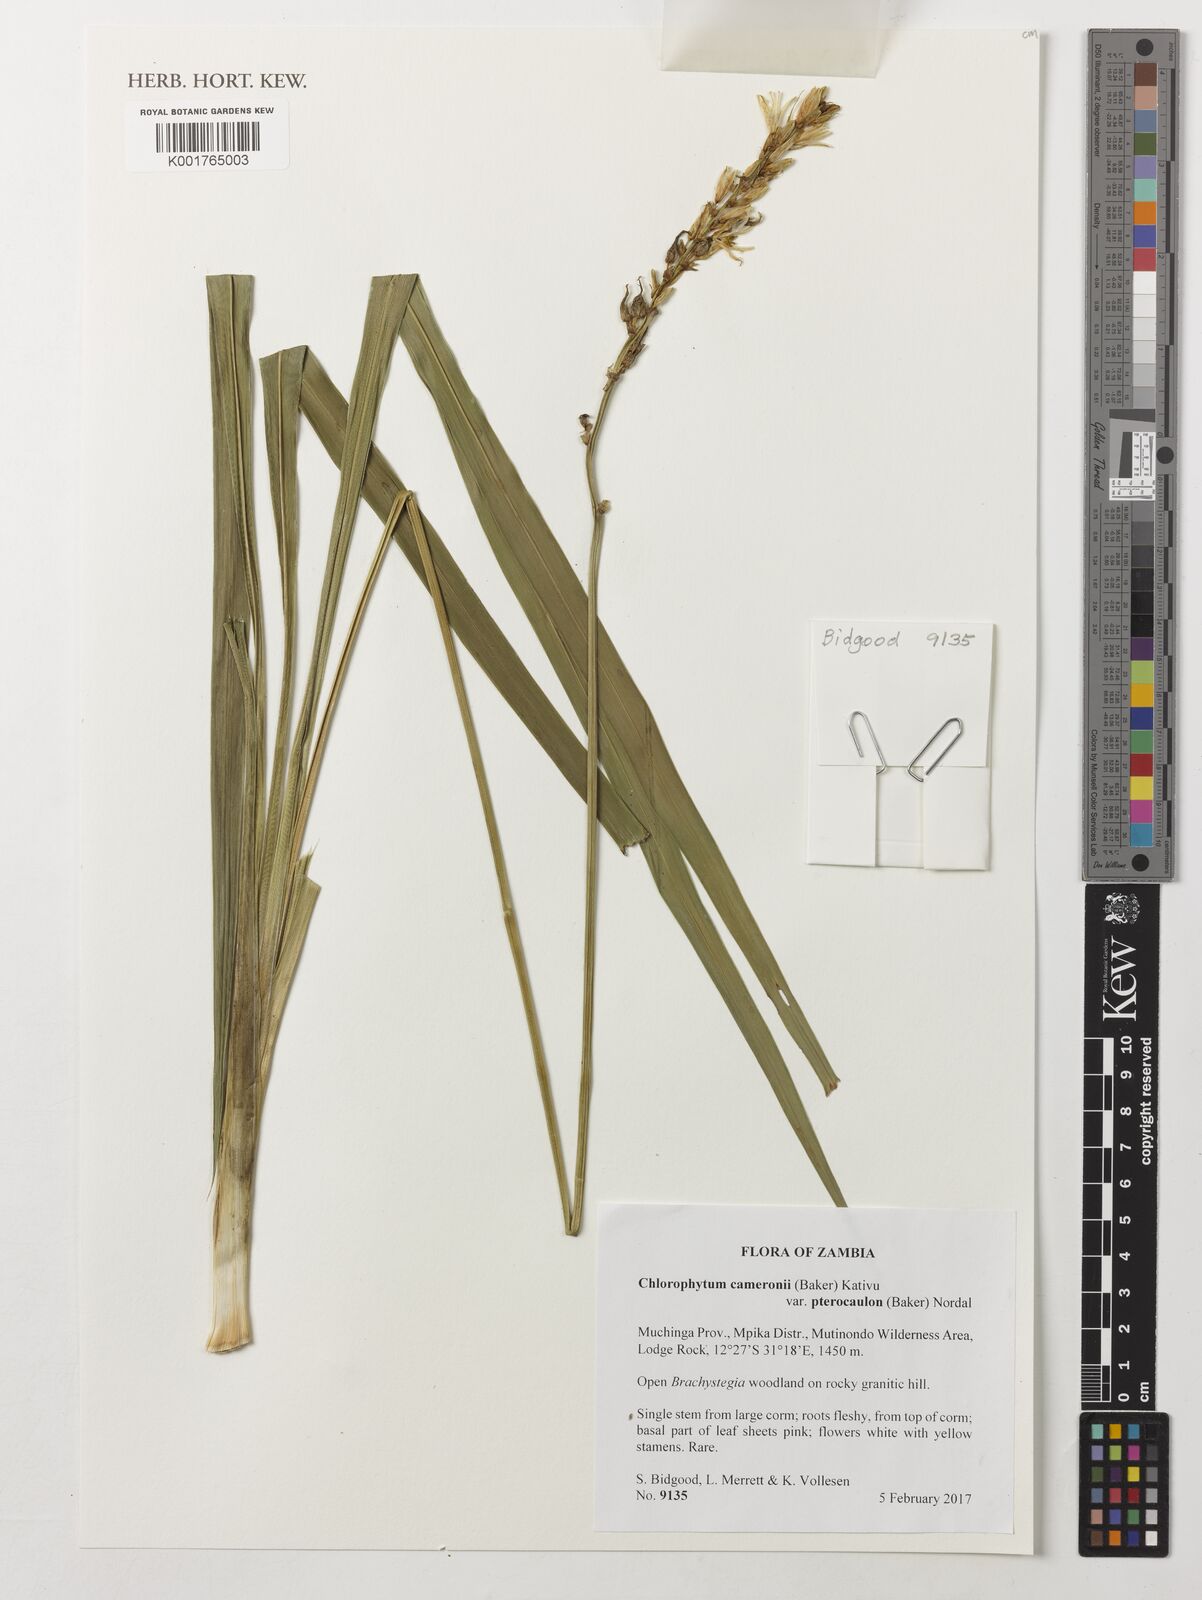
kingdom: Plantae
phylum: Tracheophyta
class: Liliopsida
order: Asparagales
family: Asparagaceae
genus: Chlorophytum
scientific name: Chlorophytum cameronii
